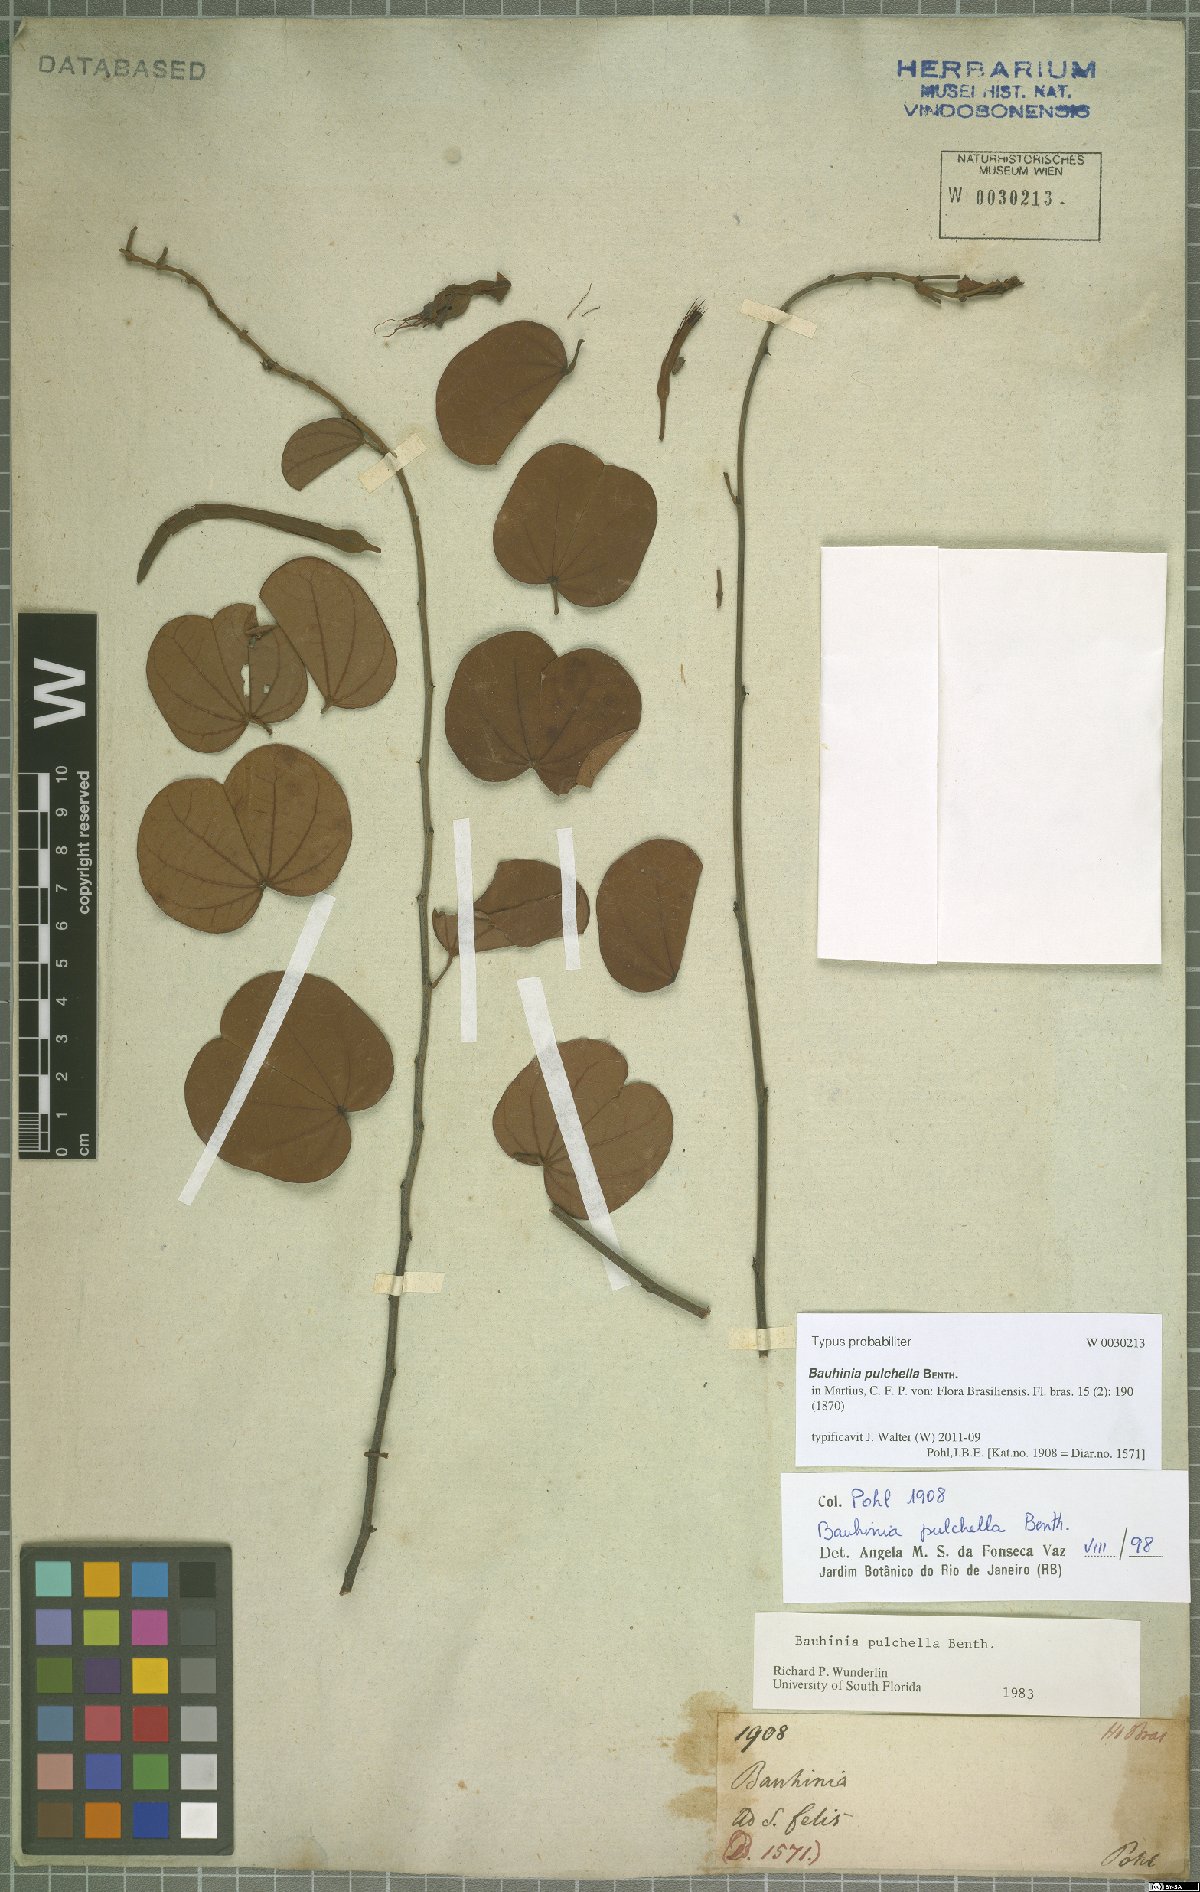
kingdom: Plantae
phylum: Tracheophyta
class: Magnoliopsida
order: Fabales
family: Fabaceae
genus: Bauhinia
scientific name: Bauhinia pulchella
